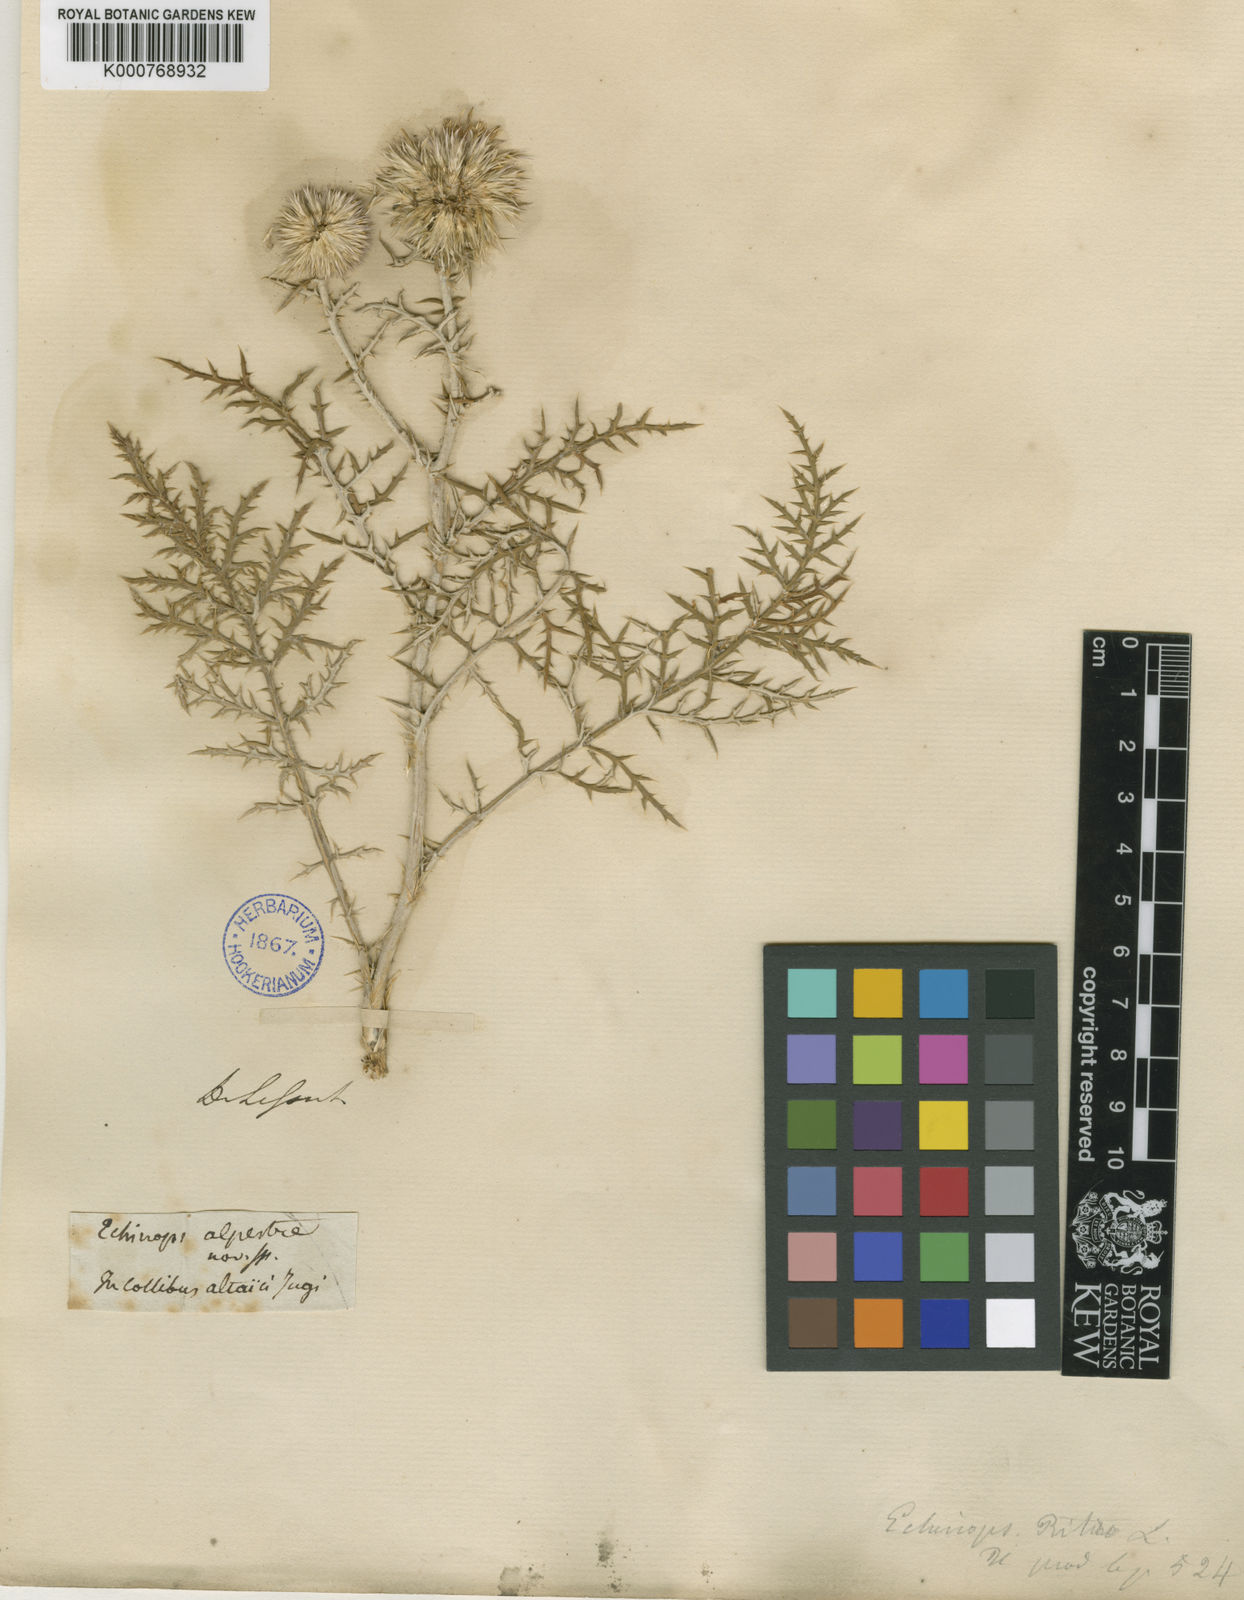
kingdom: Plantae
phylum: Tracheophyta
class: Magnoliopsida
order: Asterales
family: Asteraceae
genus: Echinops
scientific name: Echinops ritro
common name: Globe thistle
